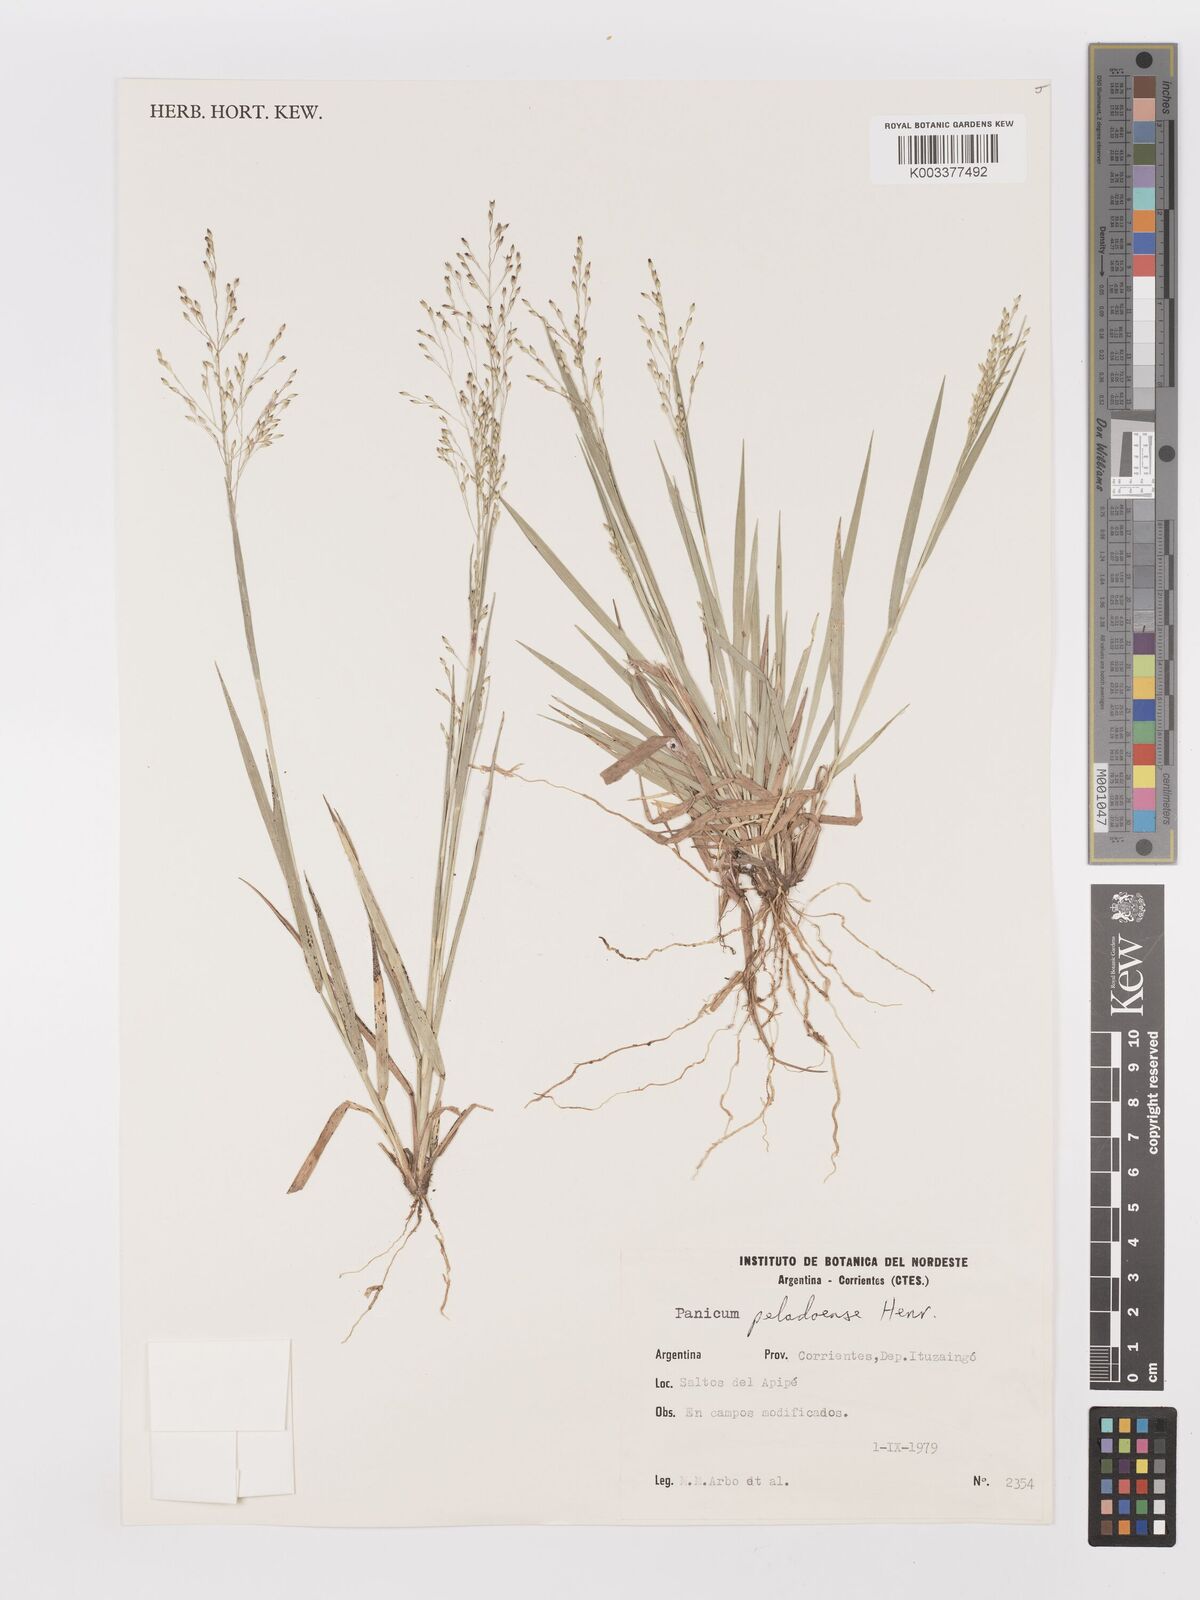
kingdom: Plantae
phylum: Tracheophyta
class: Liliopsida
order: Poales
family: Poaceae
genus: Panicum
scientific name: Panicum peladoense
